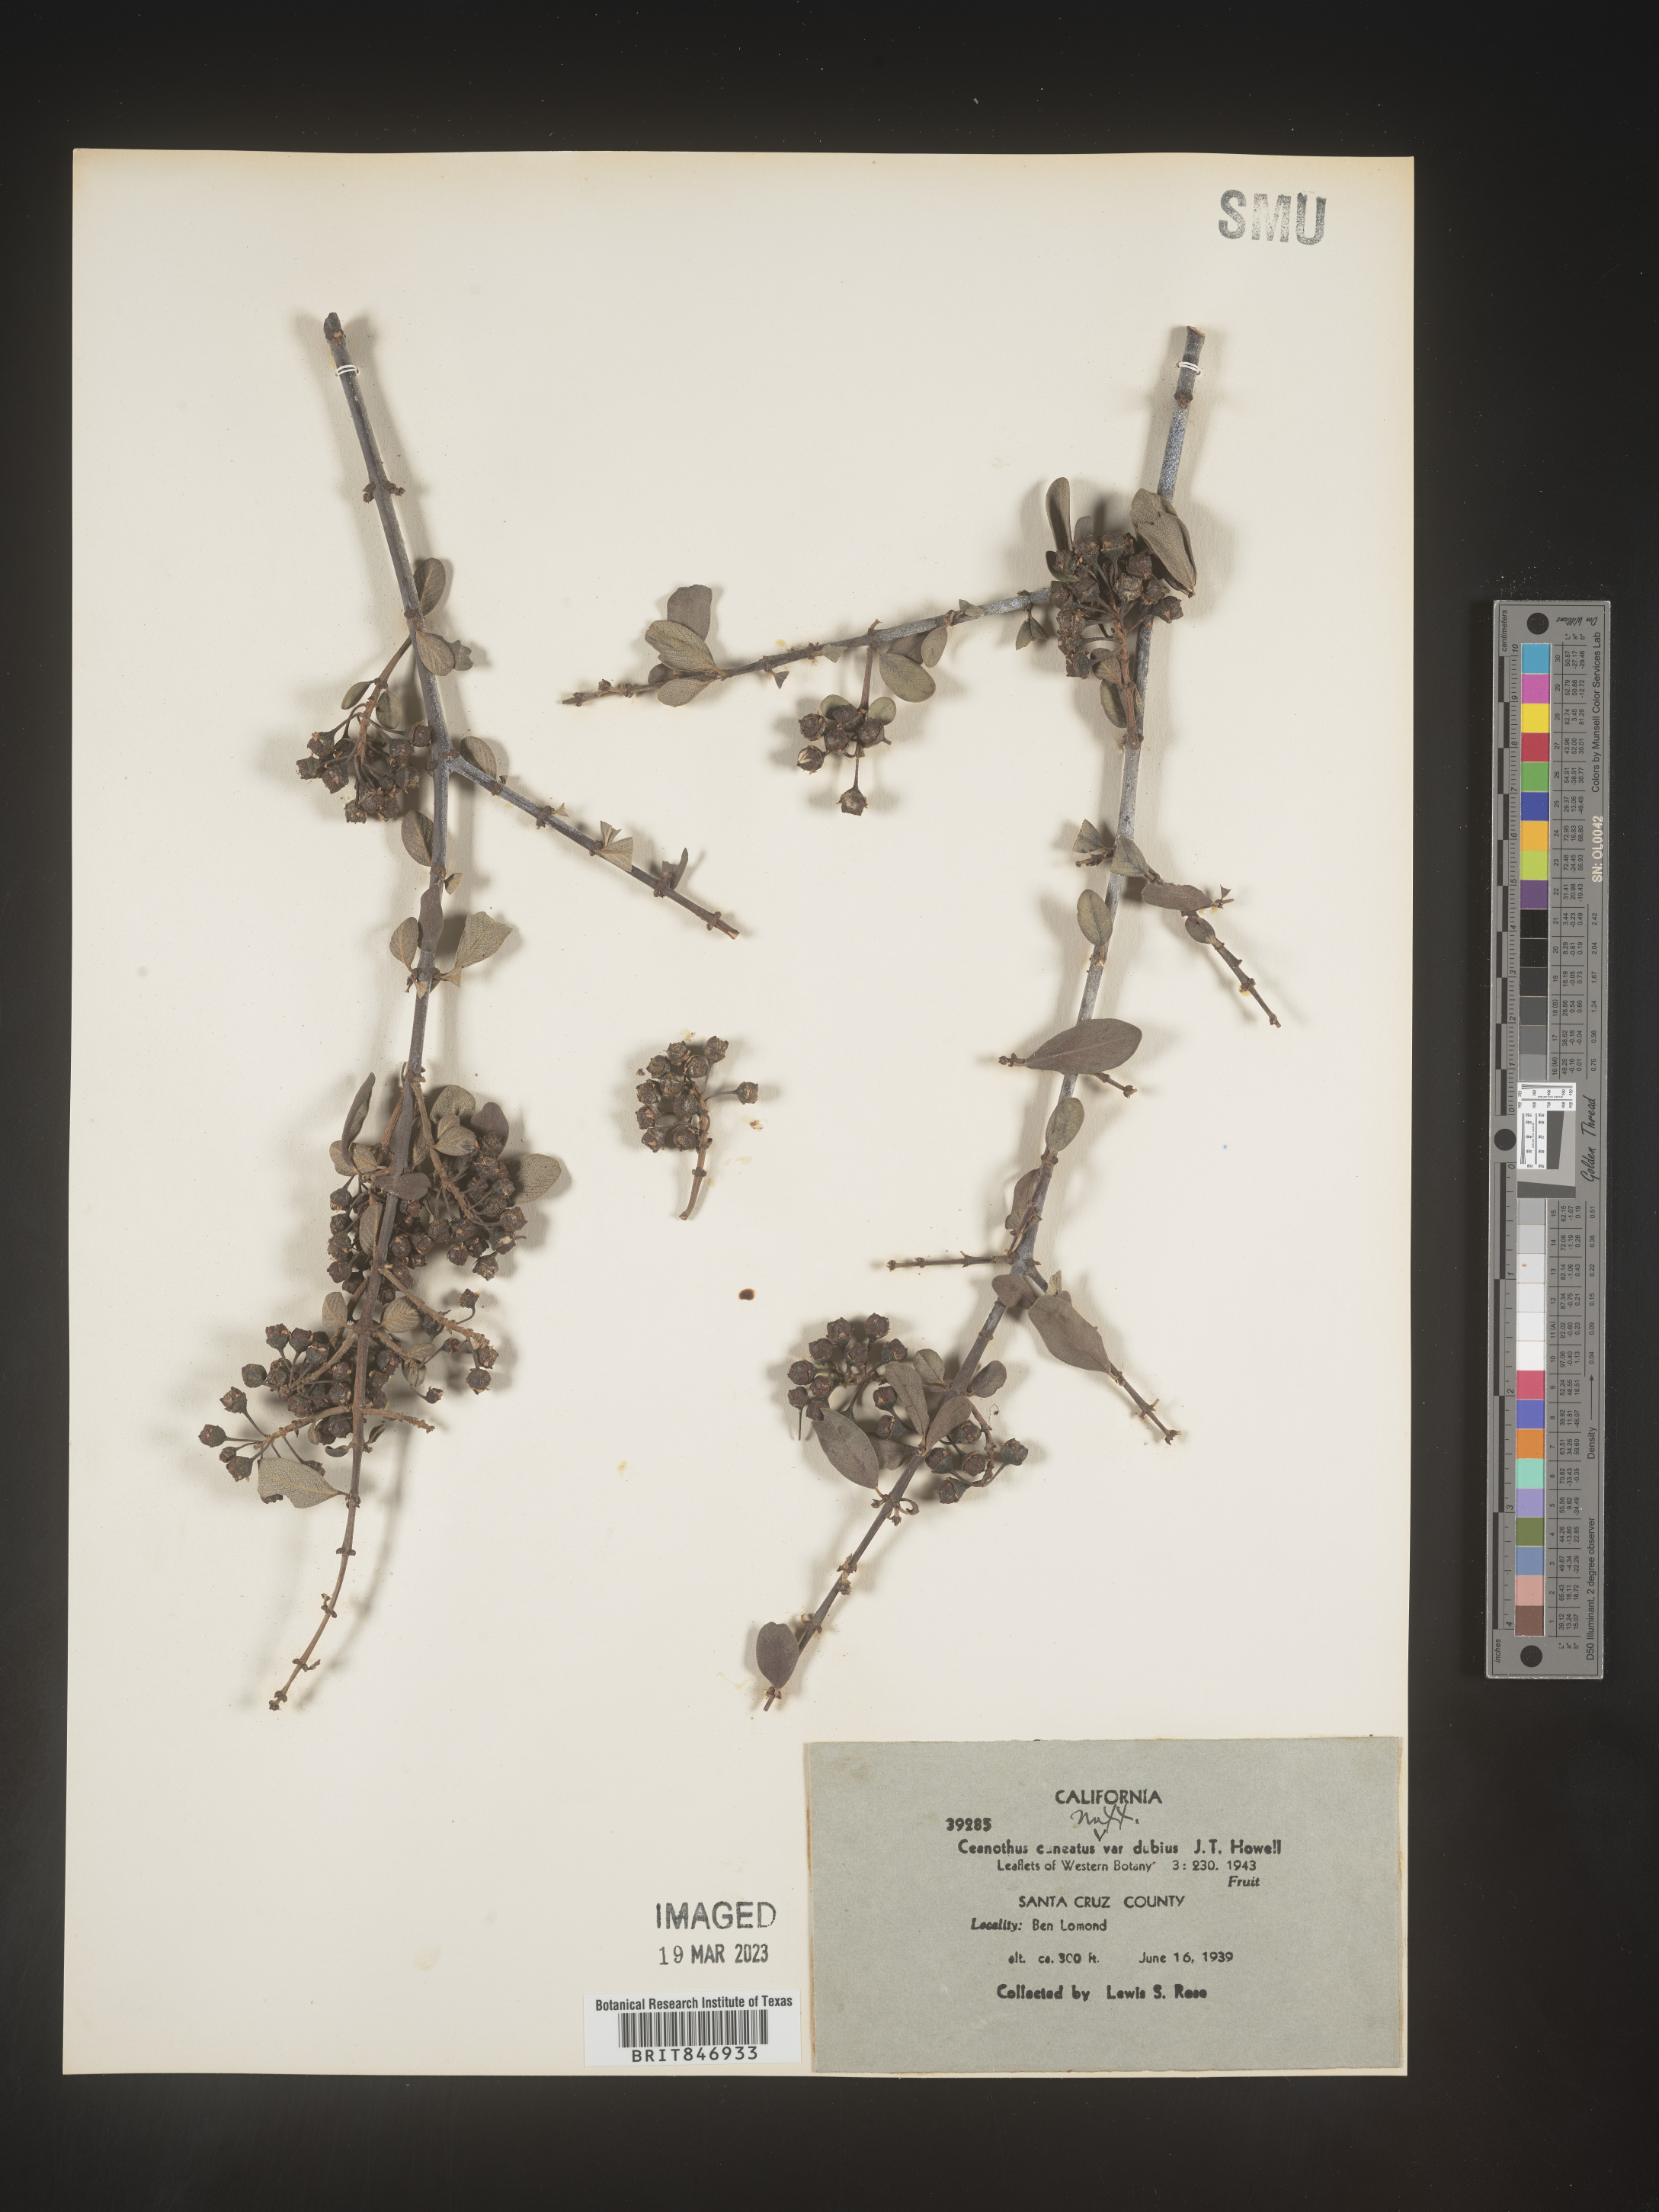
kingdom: Plantae
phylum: Tracheophyta
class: Magnoliopsida
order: Rosales
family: Rhamnaceae
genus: Ceanothus
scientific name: Ceanothus cuneatus
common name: Cuneate ceanothus
